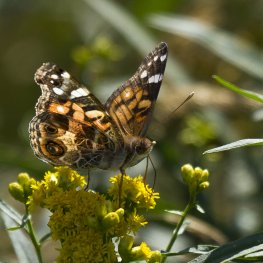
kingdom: Animalia
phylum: Arthropoda
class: Insecta
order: Lepidoptera
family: Nymphalidae
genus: Vanessa
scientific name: Vanessa virginiensis
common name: American Lady
